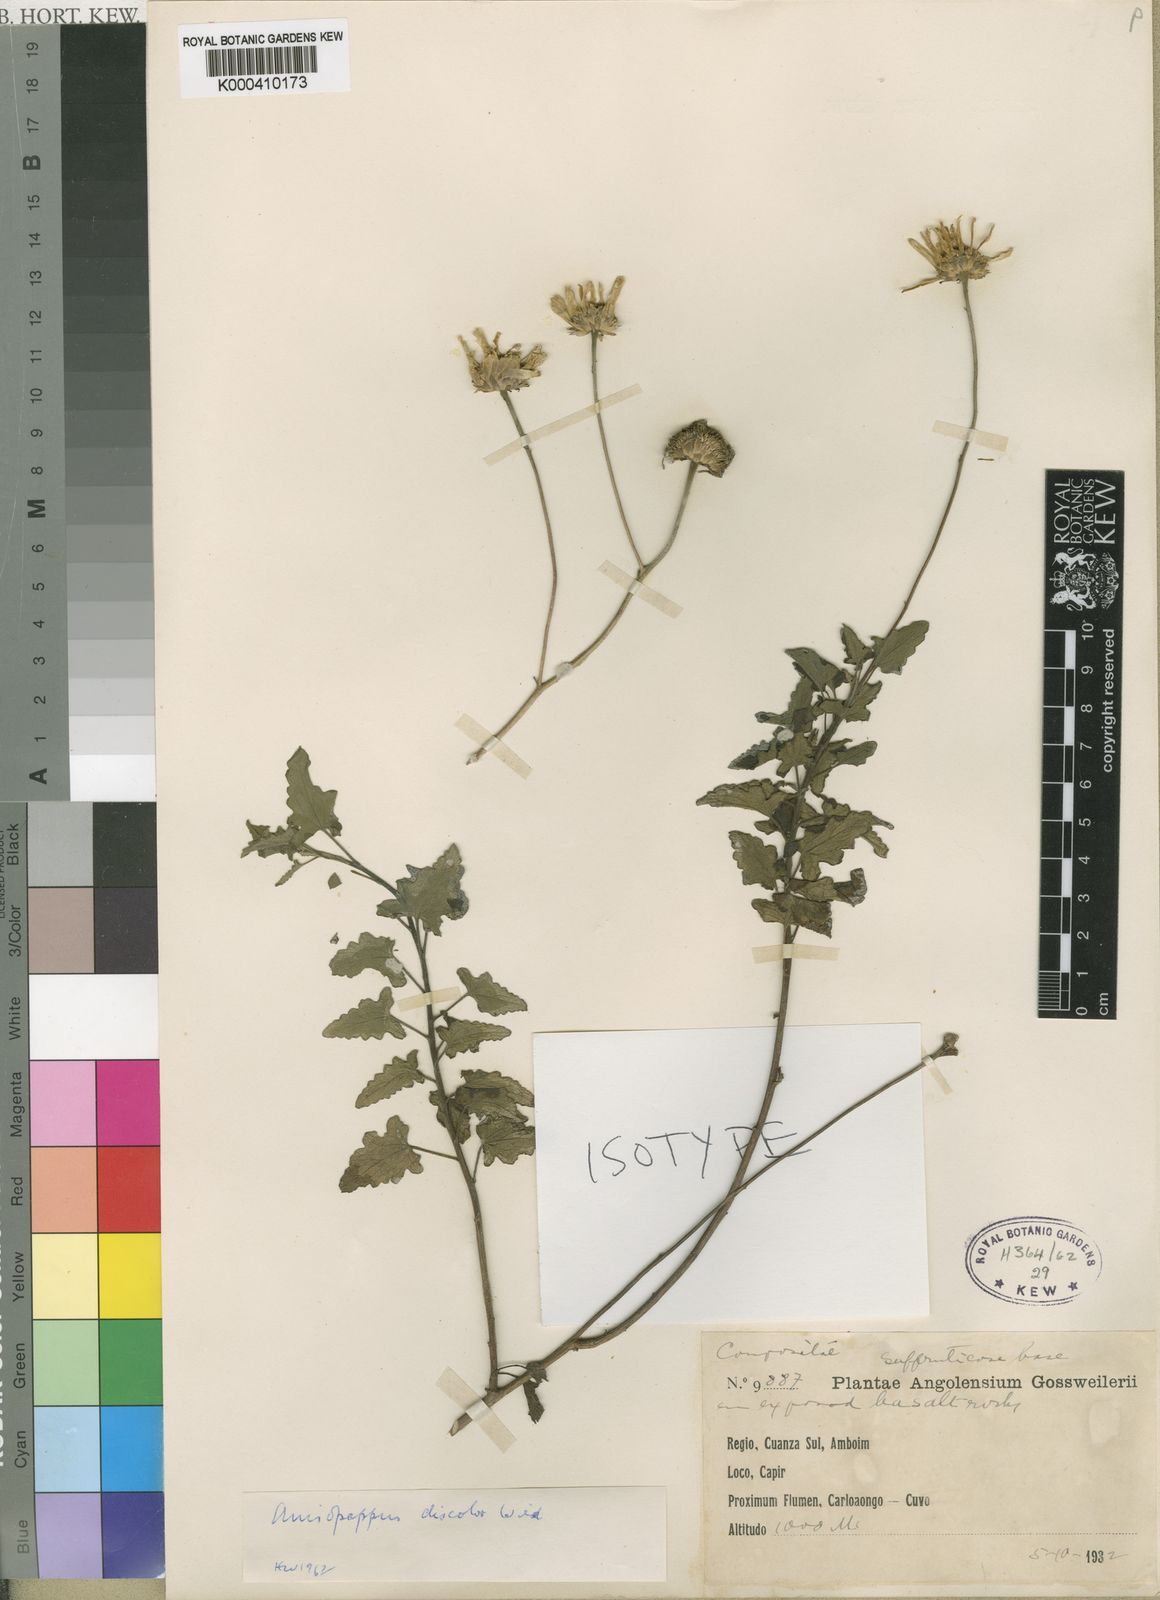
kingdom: Plantae
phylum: Tracheophyta
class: Magnoliopsida
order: Asterales
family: Asteraceae
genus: Anisopappus
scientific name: Anisopappus chinensis
